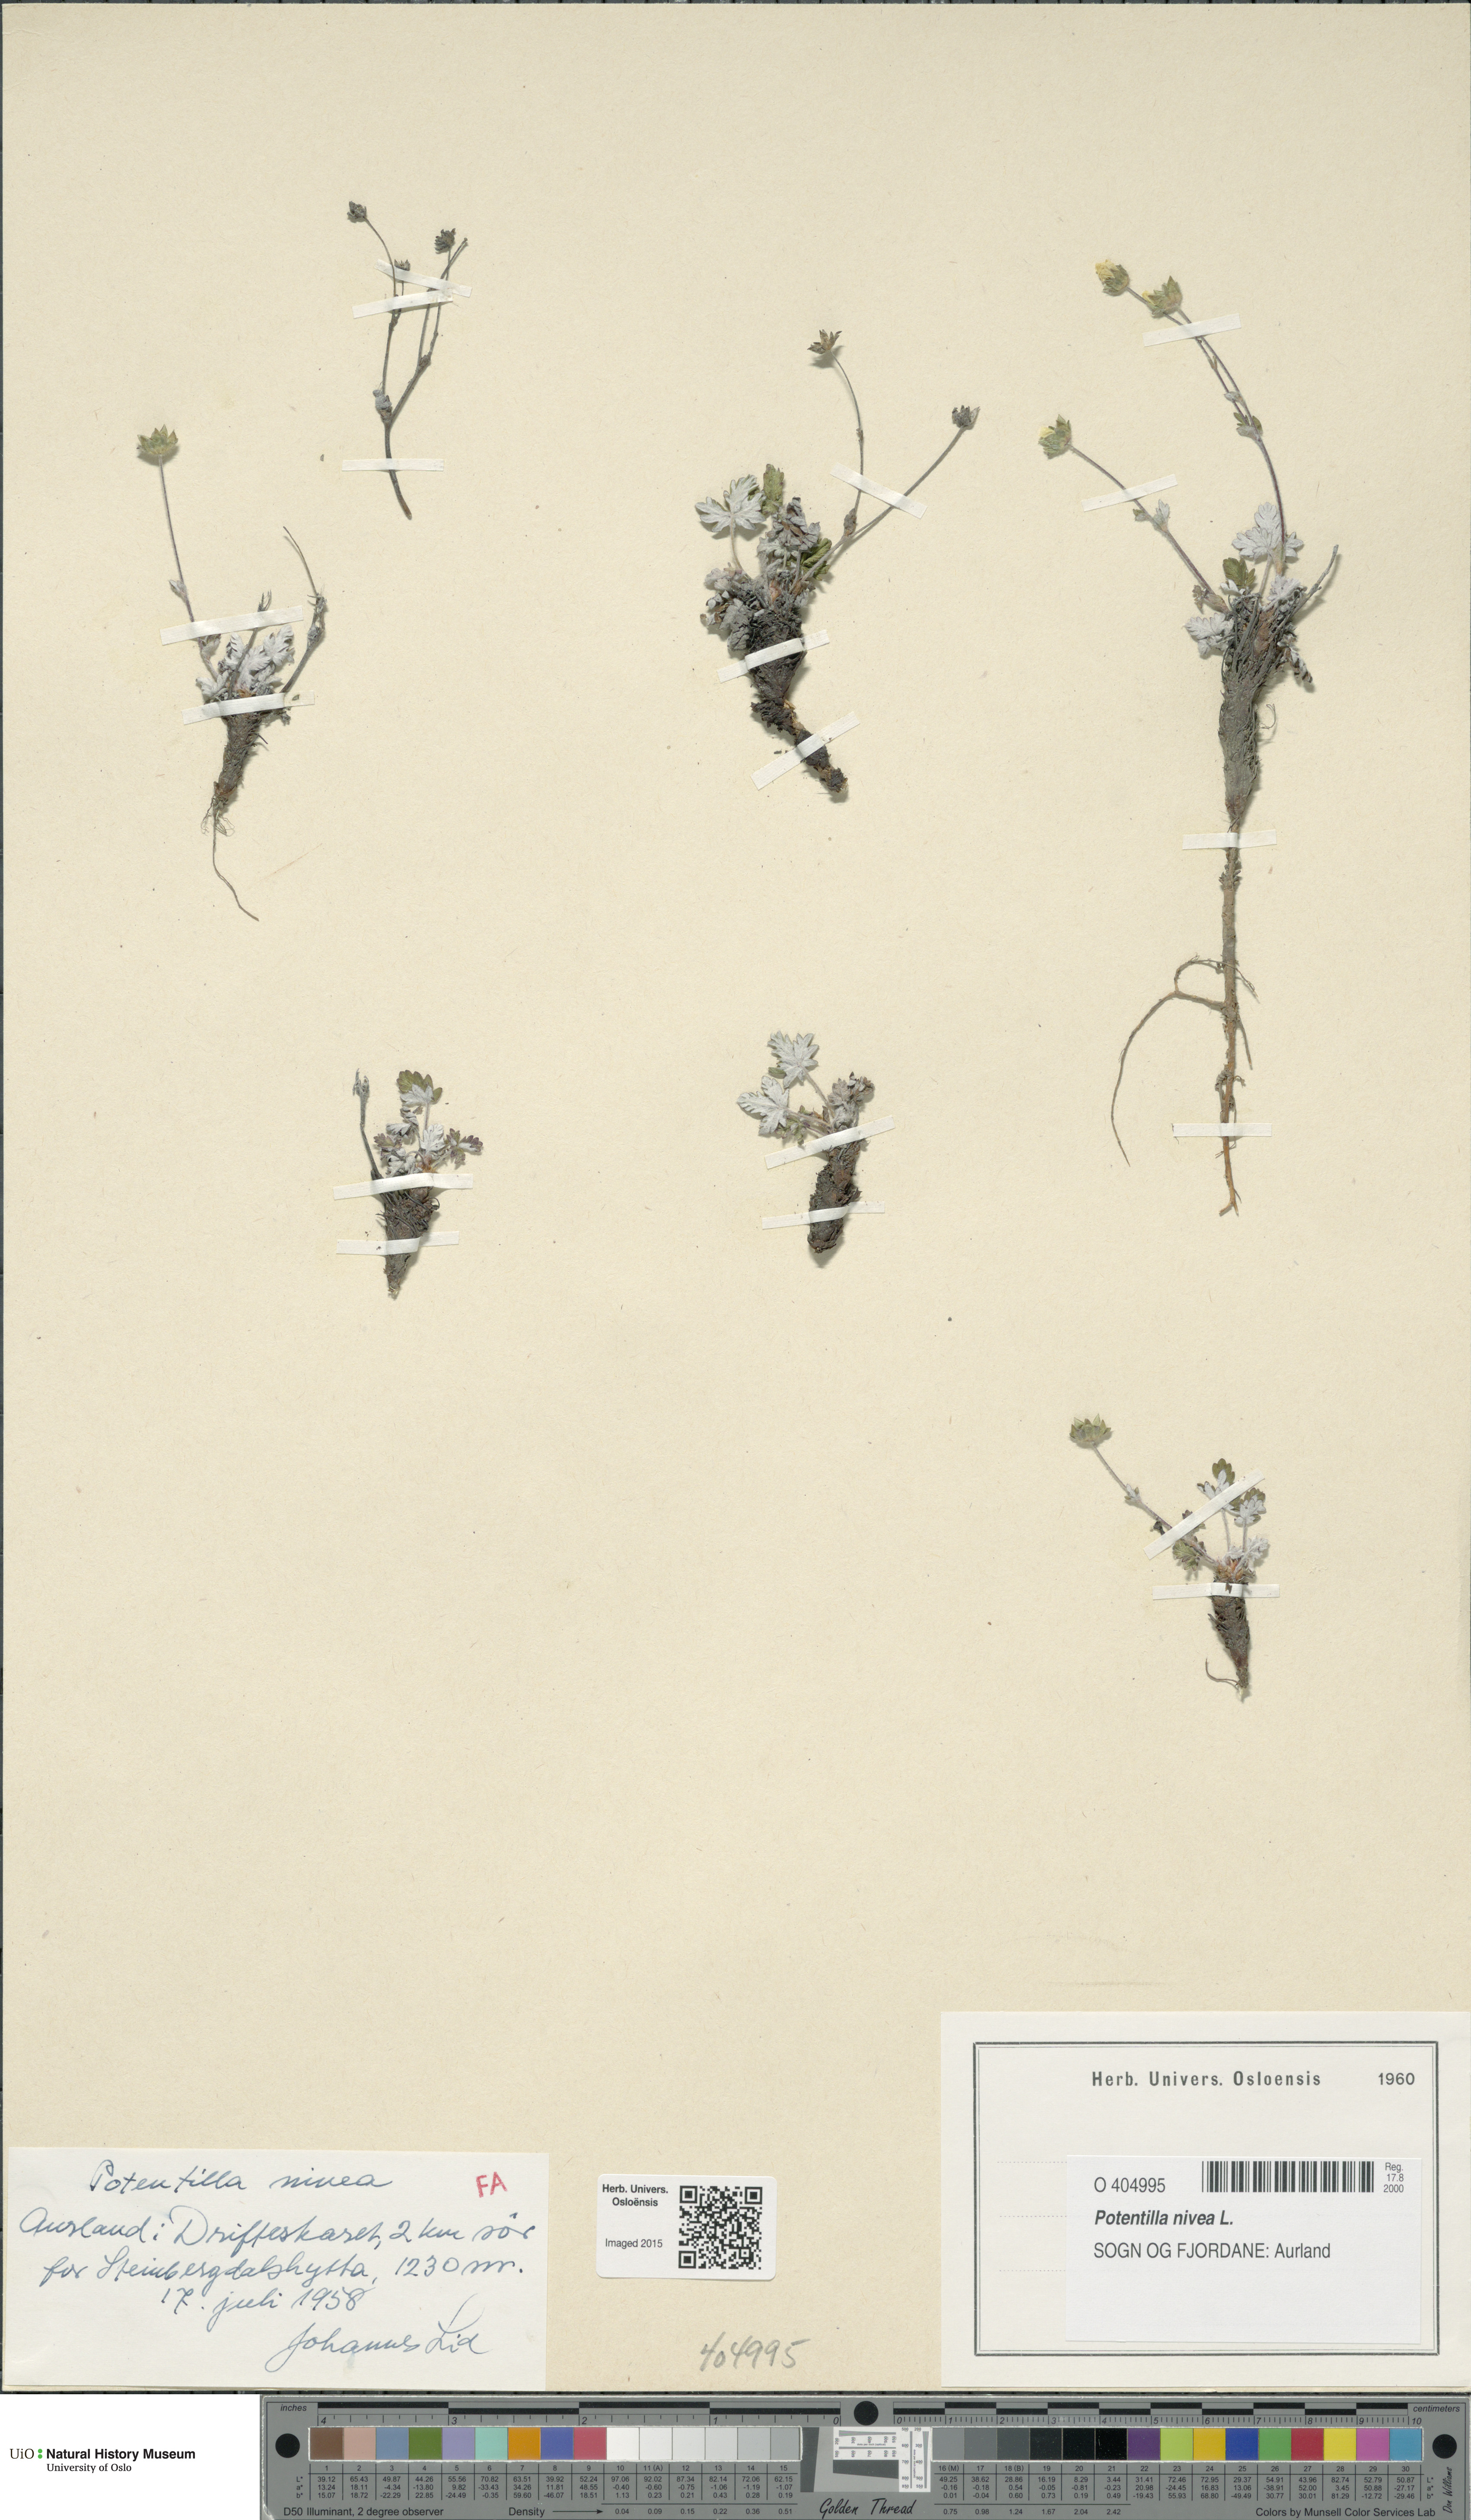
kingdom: Plantae
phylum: Tracheophyta
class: Magnoliopsida
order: Rosales
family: Rosaceae
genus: Potentilla
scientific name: Potentilla arenosa
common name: Bluff cinquefoil
